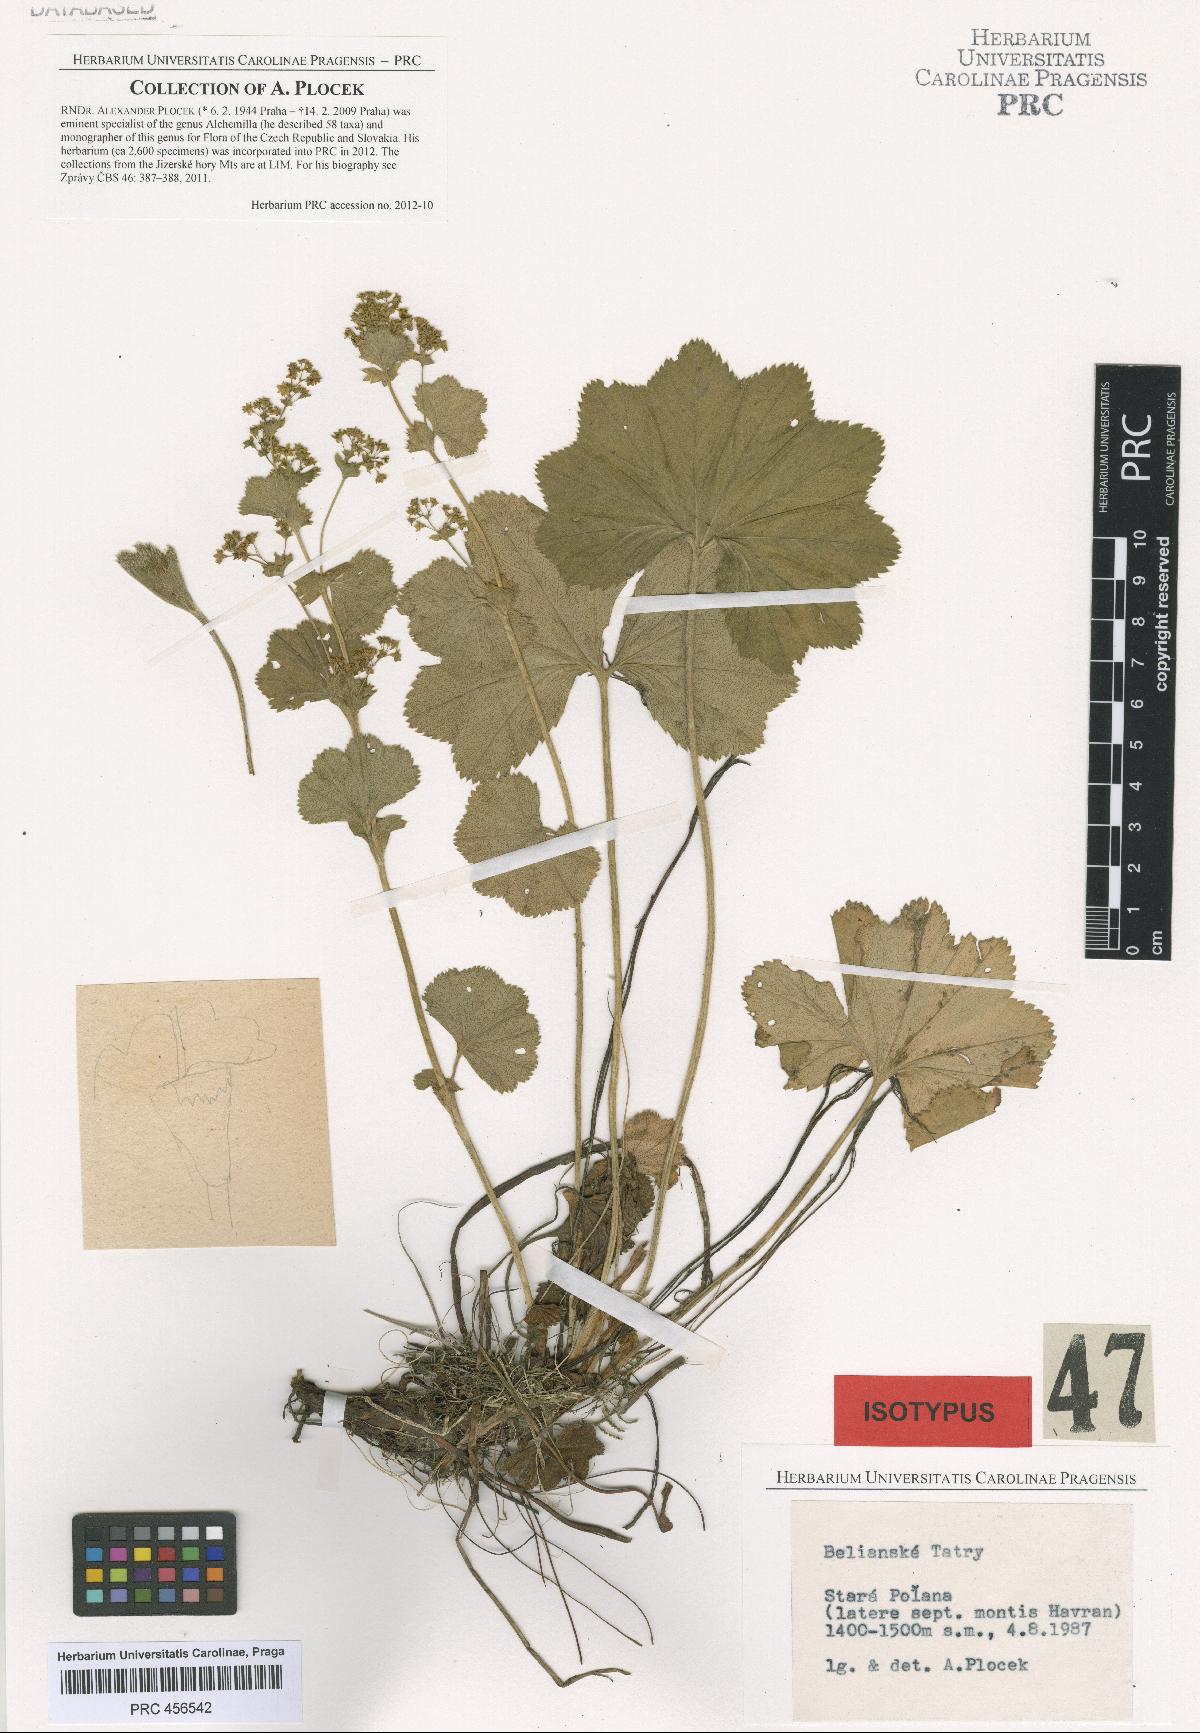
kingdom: Plantae
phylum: Tracheophyta
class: Magnoliopsida
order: Rosales
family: Rosaceae
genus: Alchemilla
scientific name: Alchemilla amauroptera
